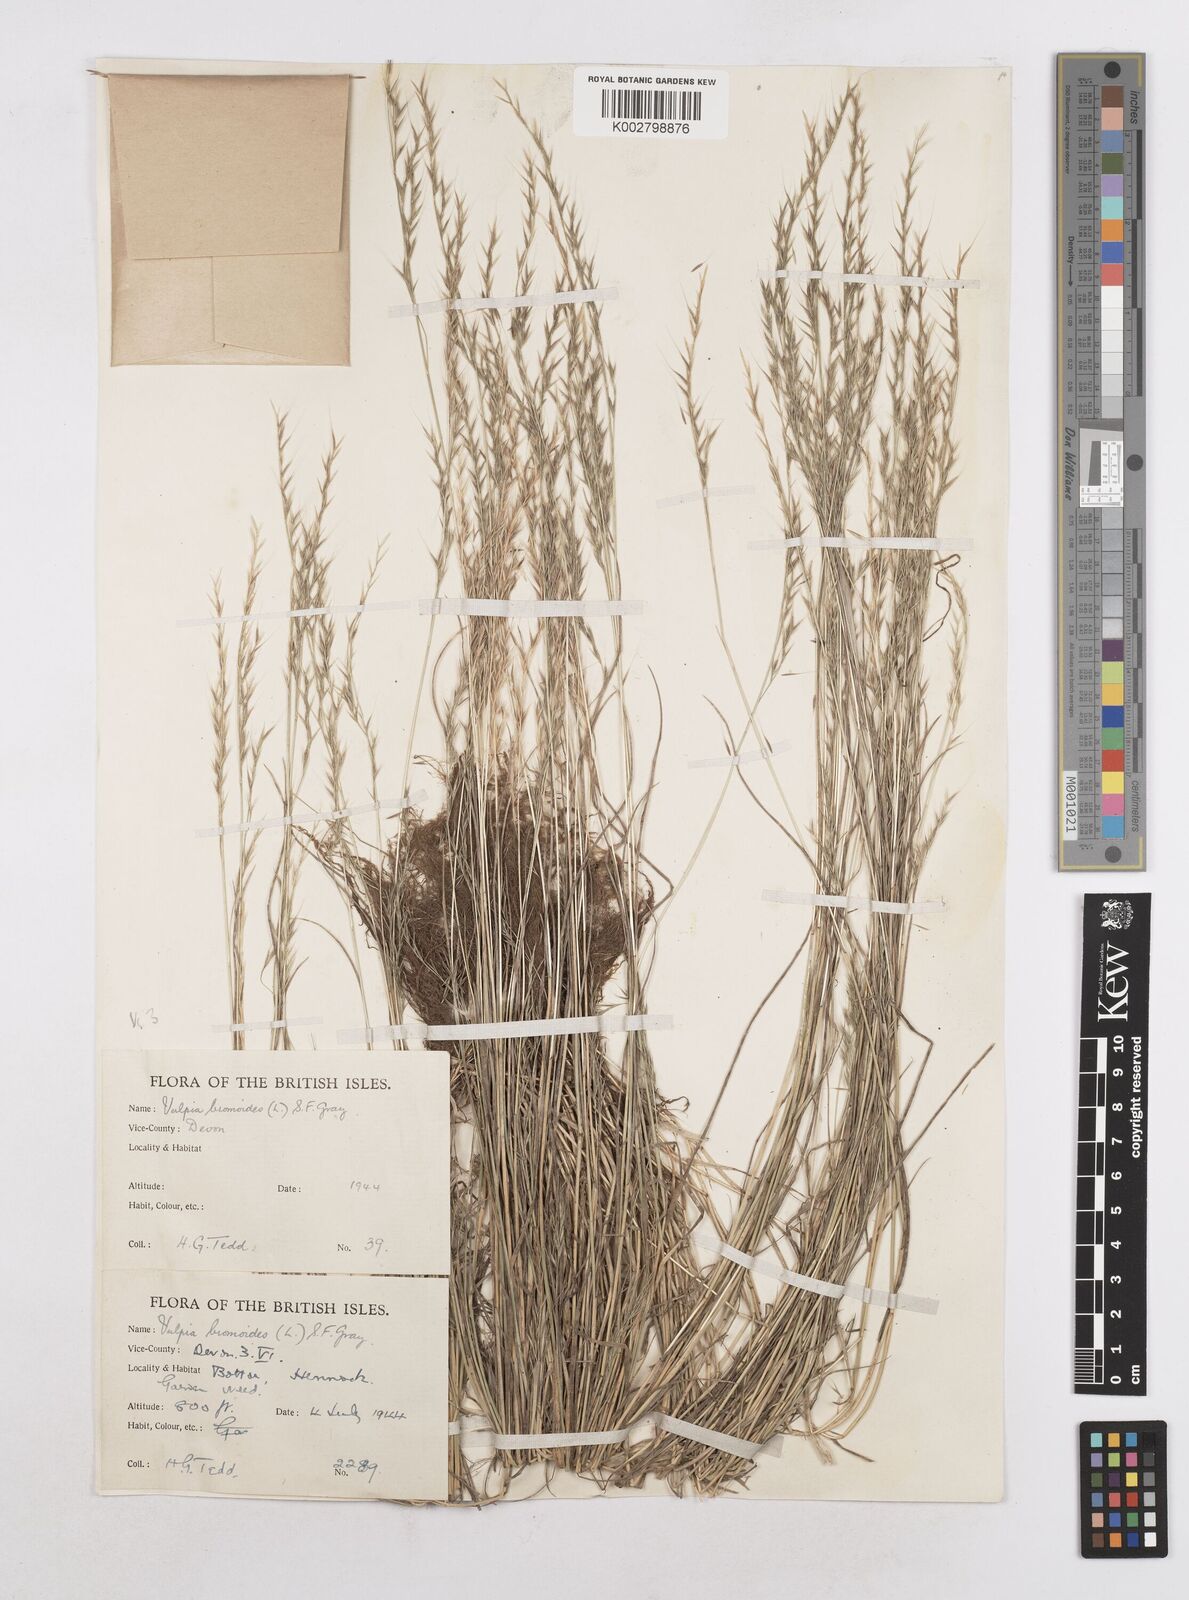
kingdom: Plantae
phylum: Tracheophyta
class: Liliopsida
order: Poales
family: Poaceae
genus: Festuca
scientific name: Festuca bromoides
